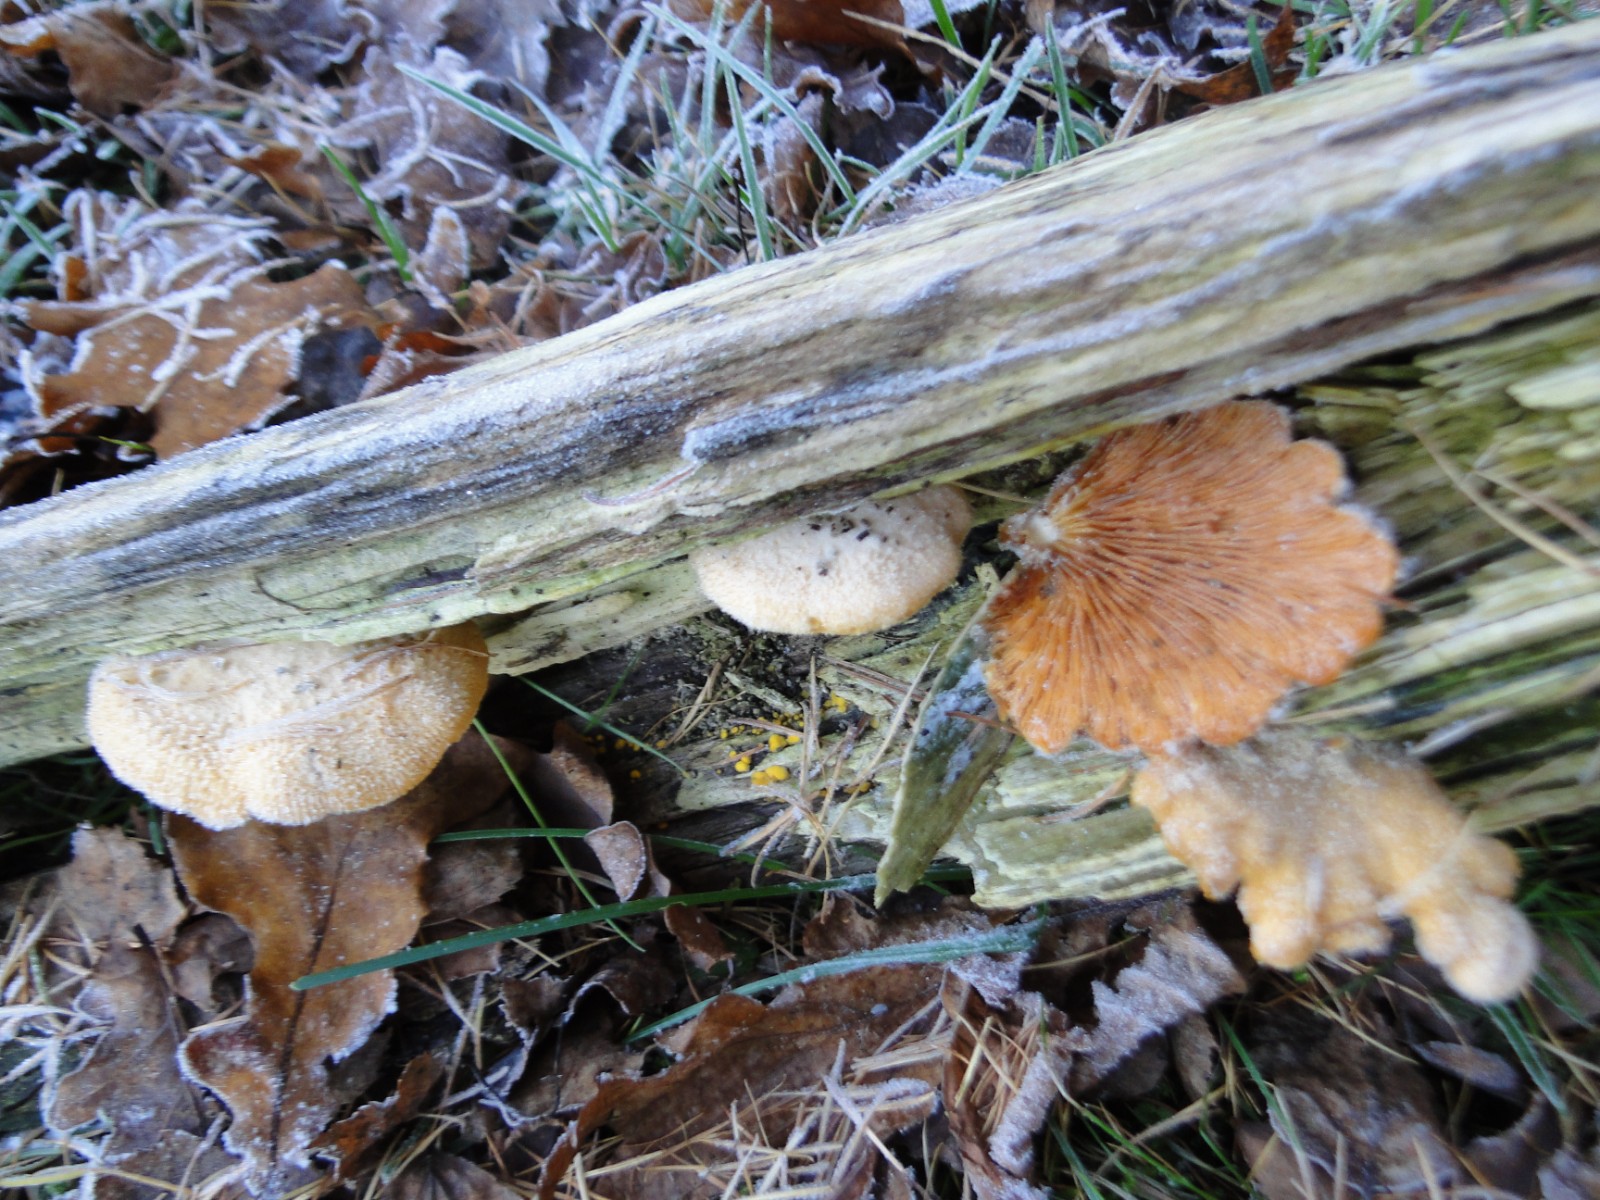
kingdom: Fungi
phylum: Basidiomycota
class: Agaricomycetes
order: Agaricales
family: Phyllotopsidaceae
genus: Phyllotopsis
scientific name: Phyllotopsis nidulans
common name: okkerblad
